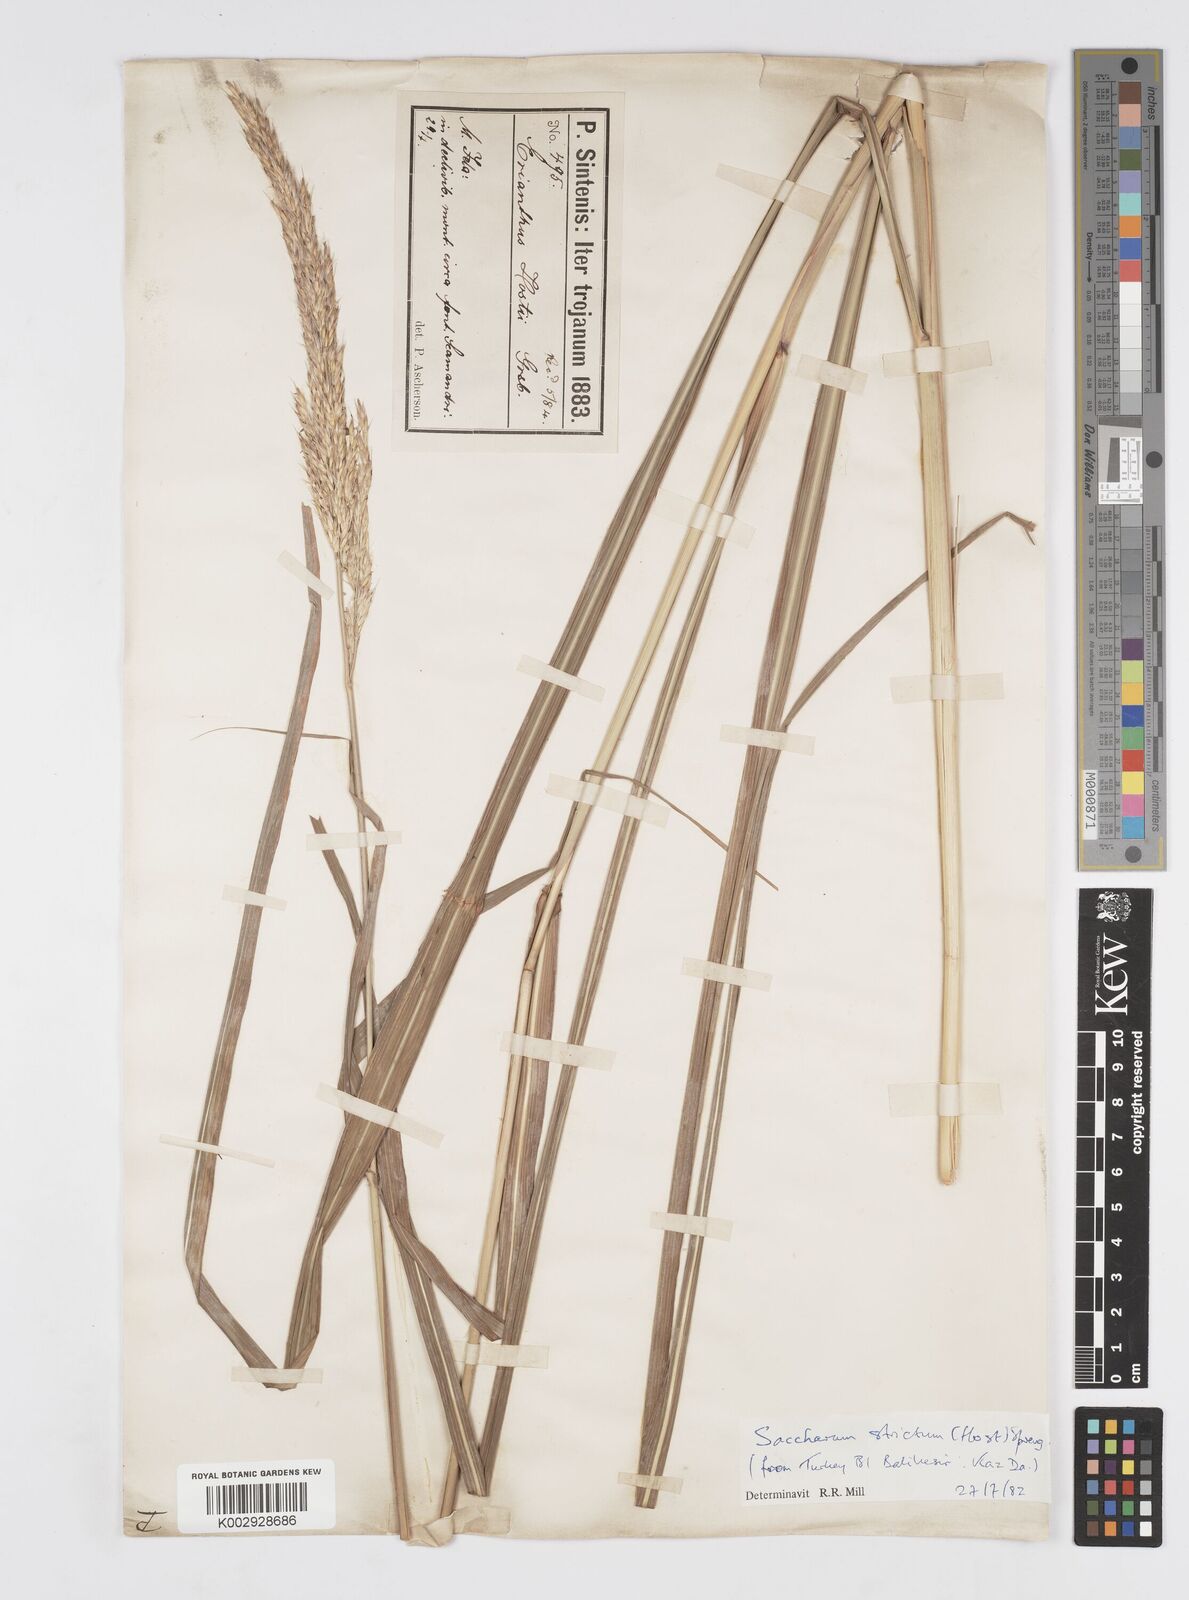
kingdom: Plantae
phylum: Tracheophyta
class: Liliopsida
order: Poales
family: Poaceae
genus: Tripidium
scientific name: Tripidium strictum
